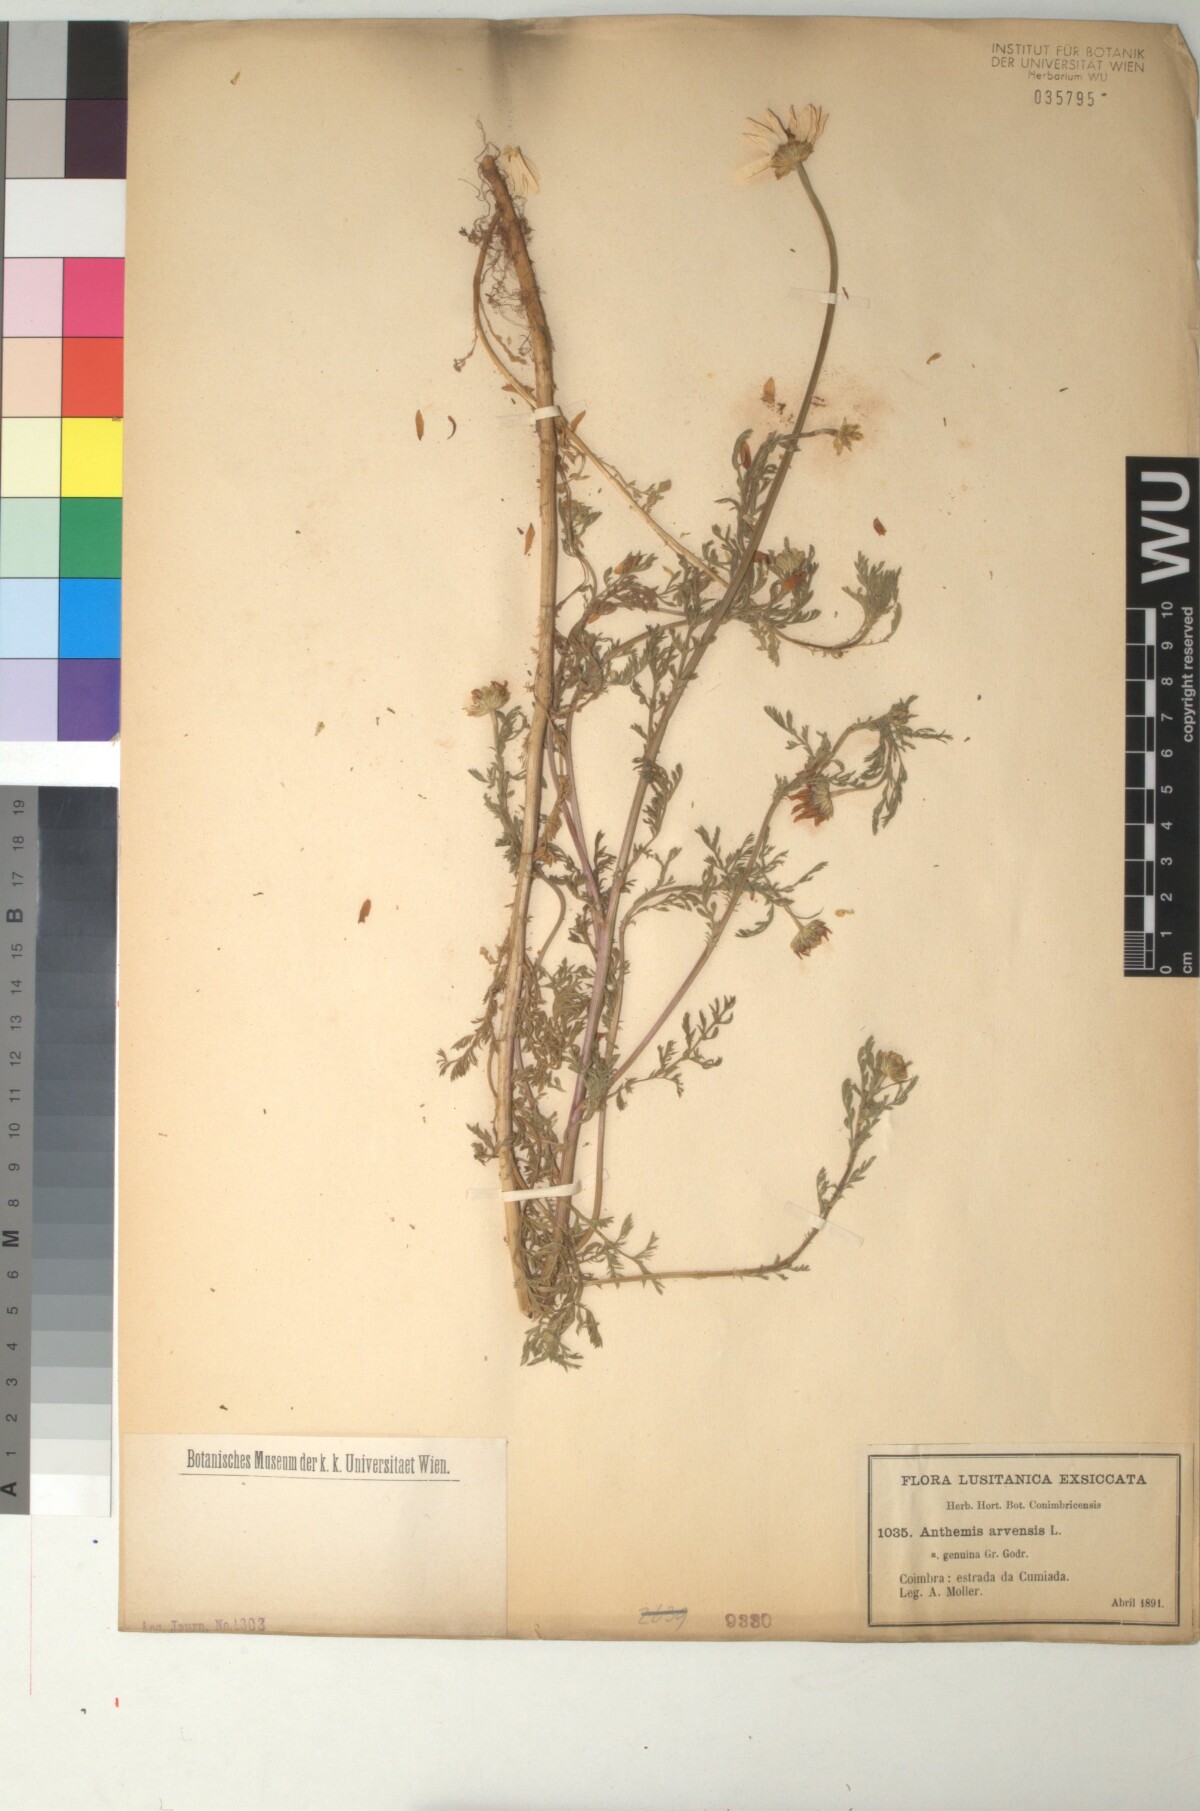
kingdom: Plantae
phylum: Tracheophyta
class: Magnoliopsida
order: Asterales
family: Asteraceae
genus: Anthemis
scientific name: Anthemis arvensis
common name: Corn chamomile
